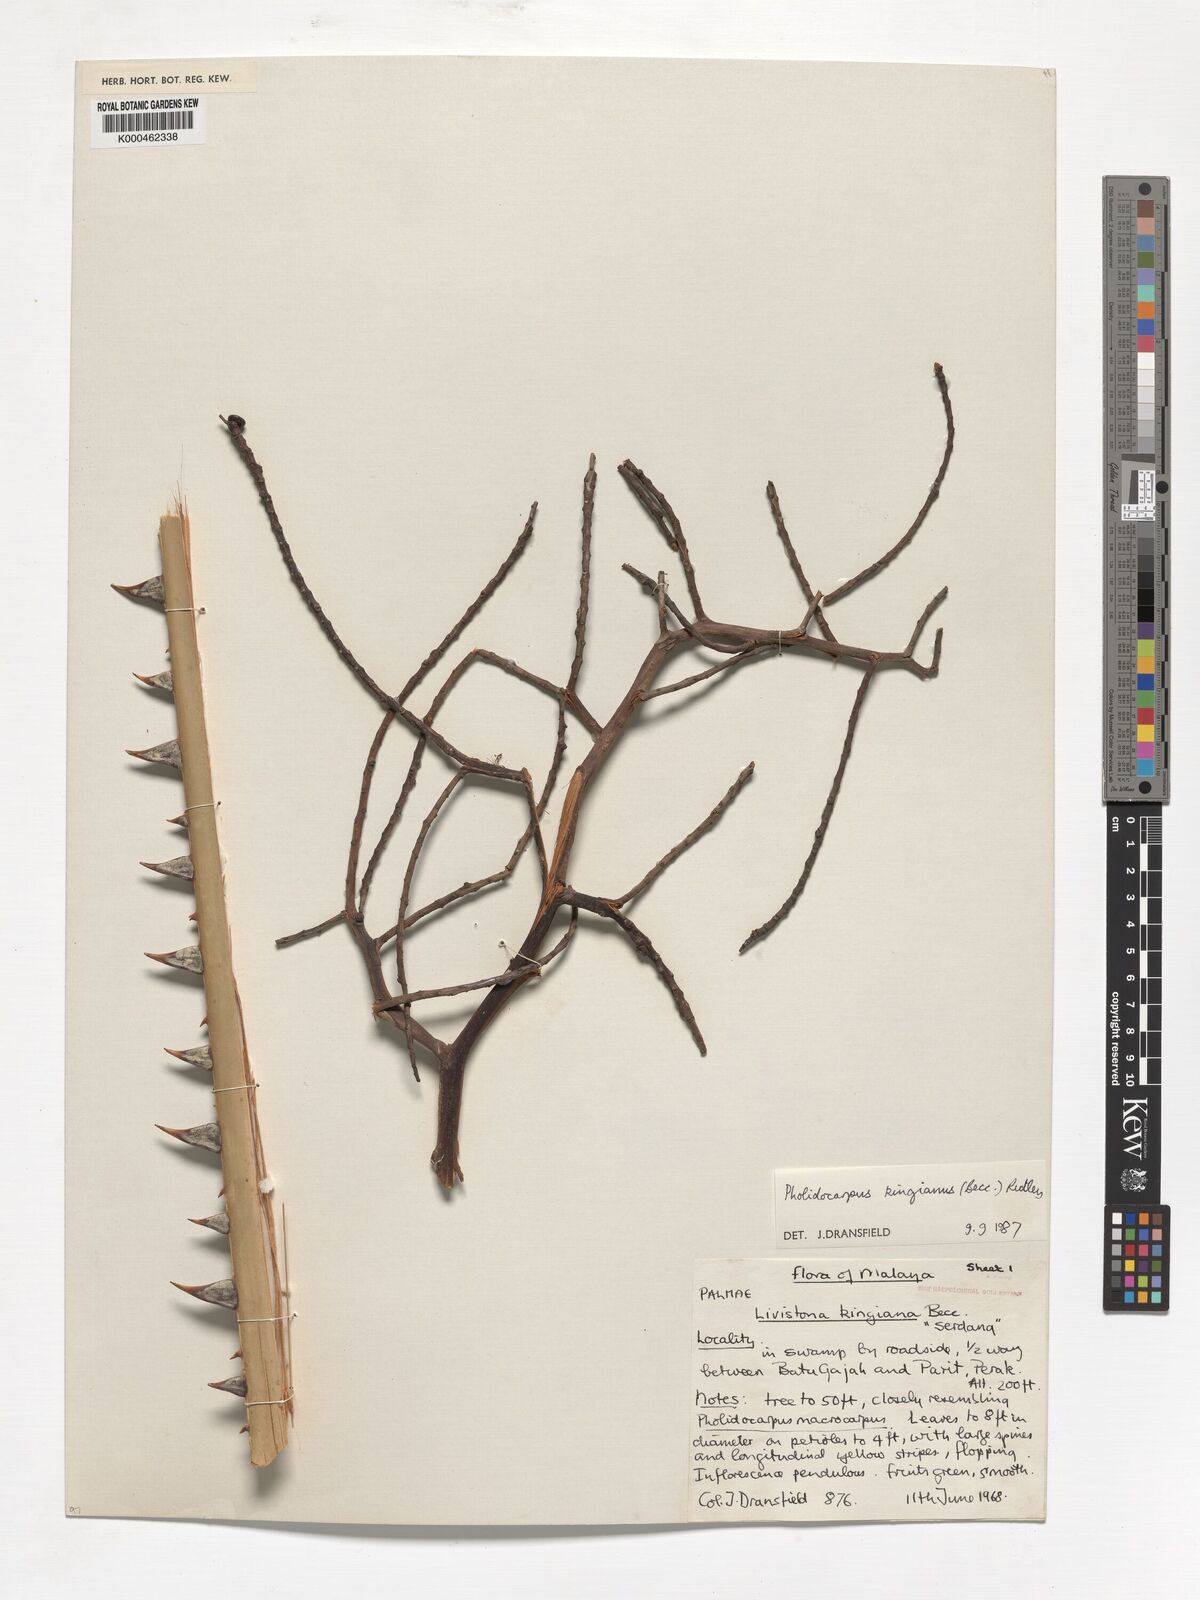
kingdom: Plantae
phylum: Tracheophyta
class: Liliopsida
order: Arecales
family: Arecaceae
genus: Pholidocarpus
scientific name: Pholidocarpus kingianus
